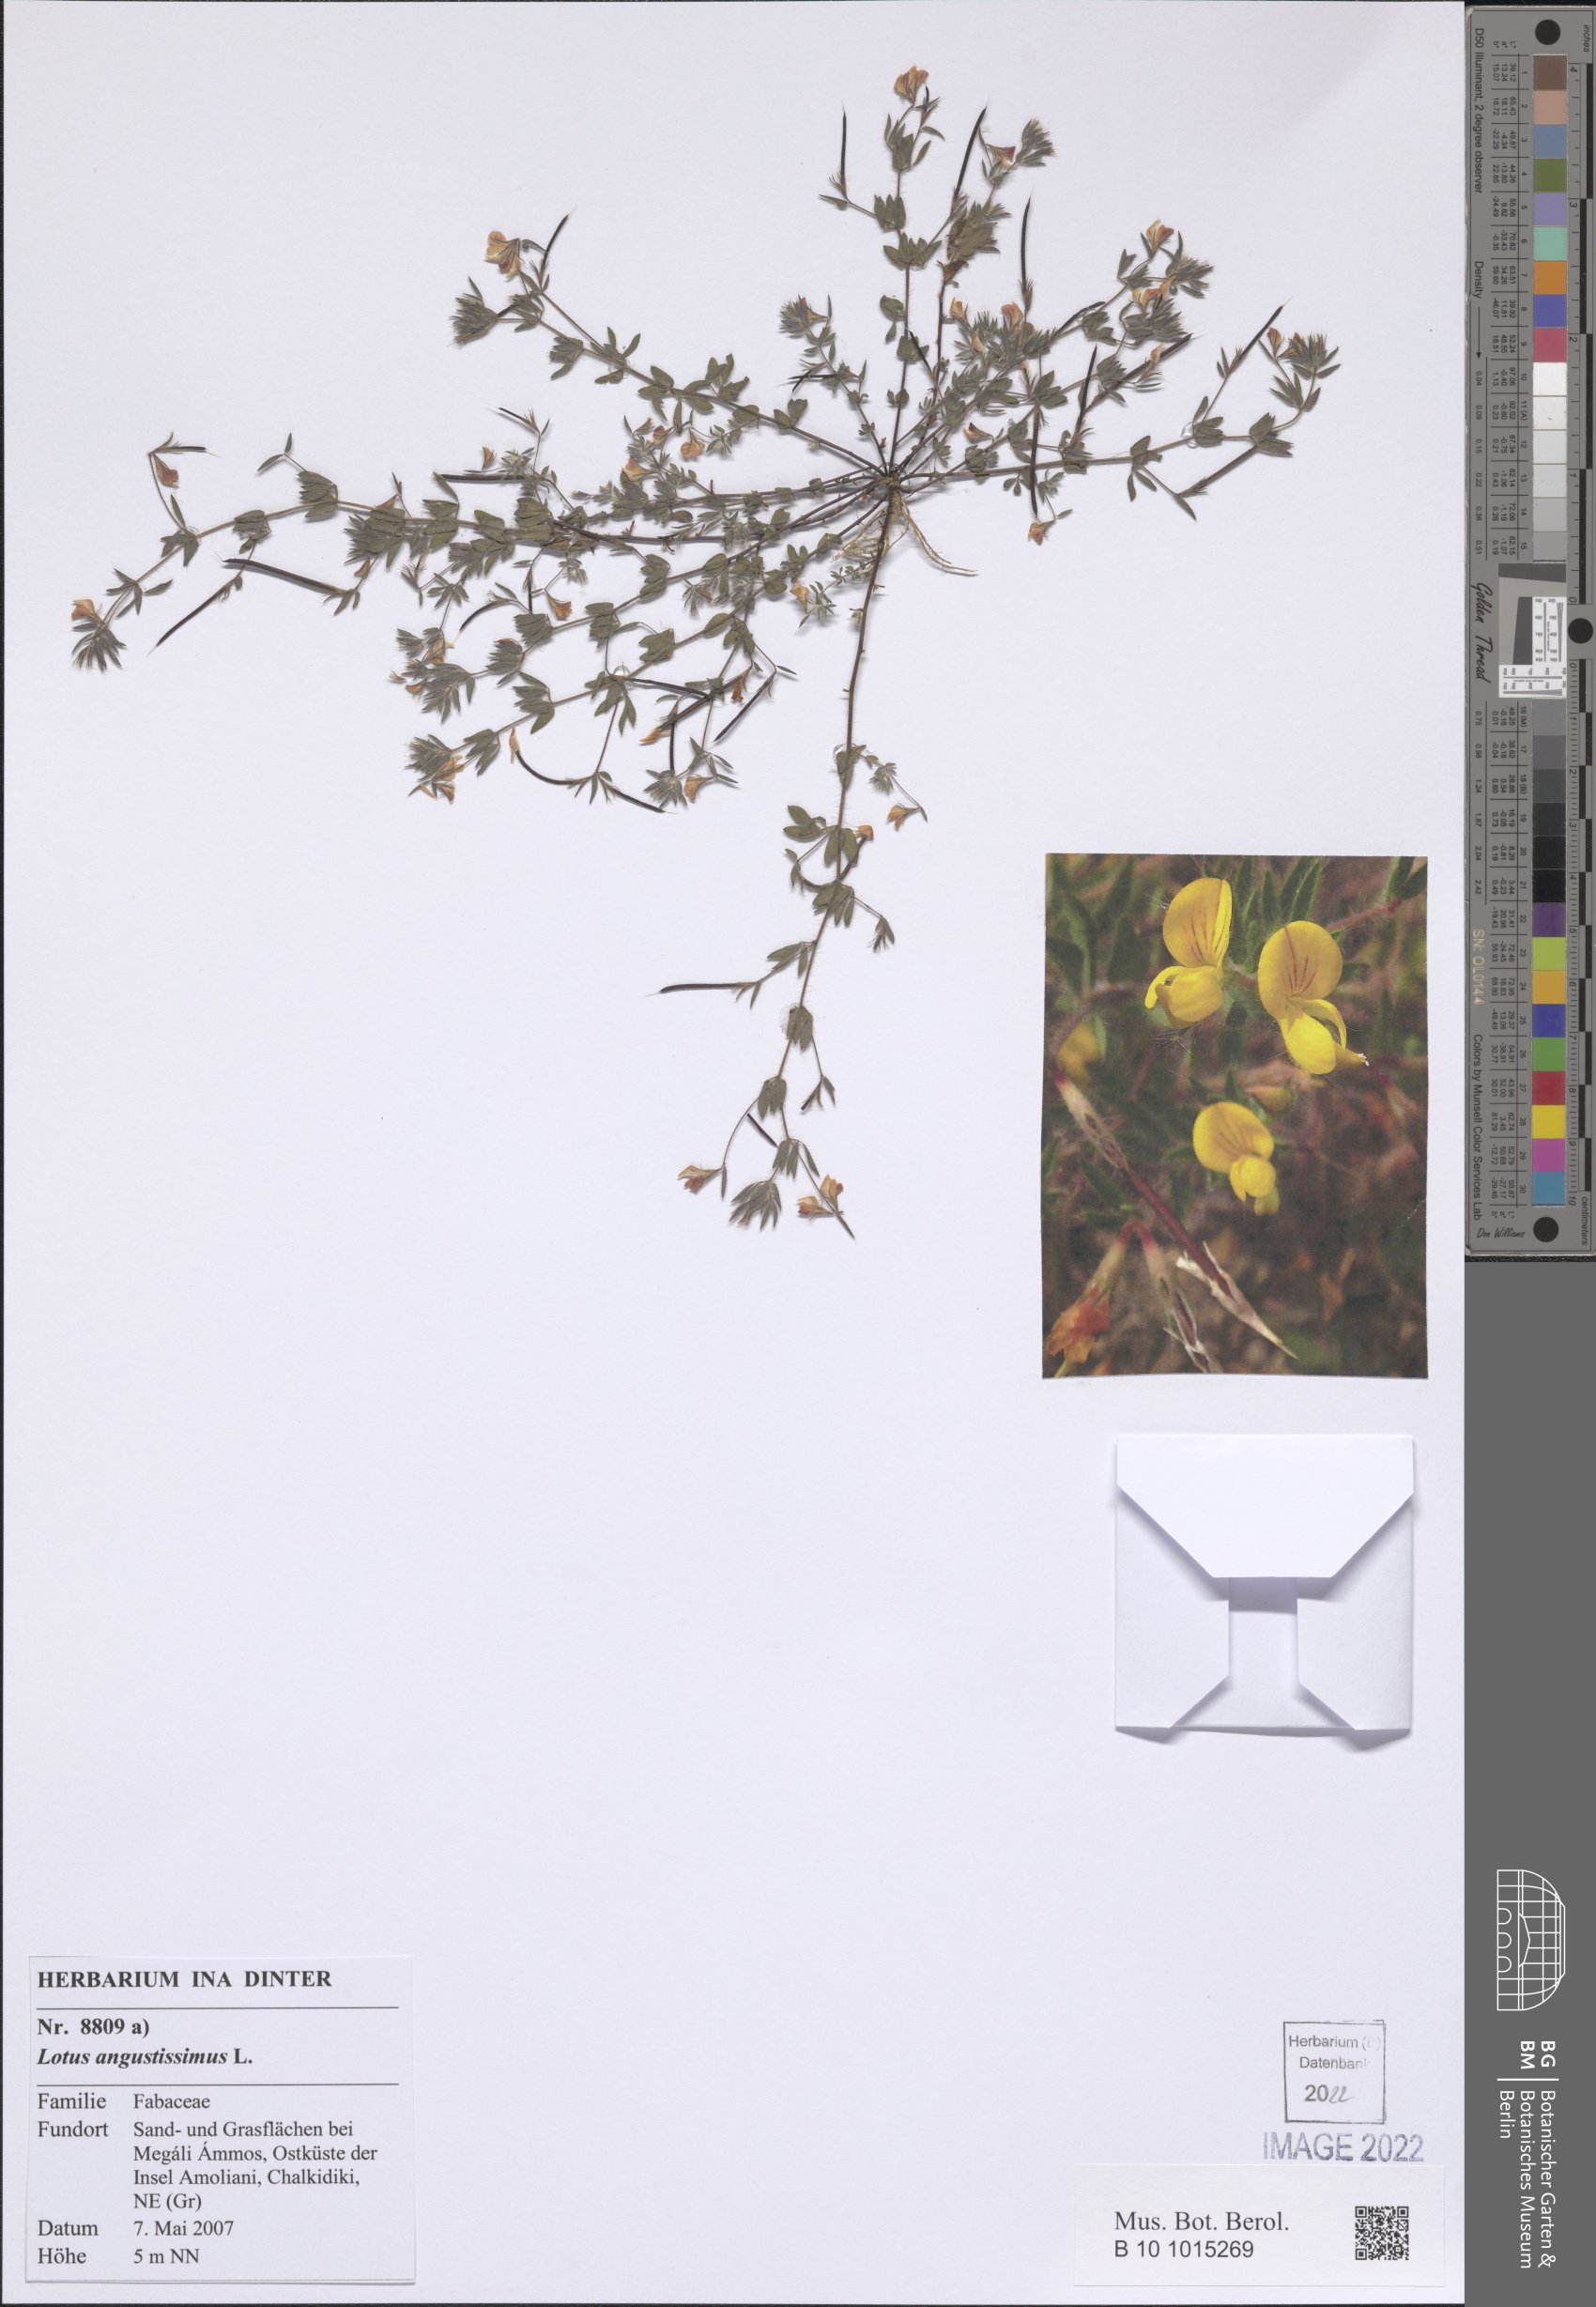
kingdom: Plantae
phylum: Tracheophyta
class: Magnoliopsida
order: Fabales
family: Fabaceae
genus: Lotus
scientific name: Lotus angustissimus
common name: Slender bird's-foot trefoil
